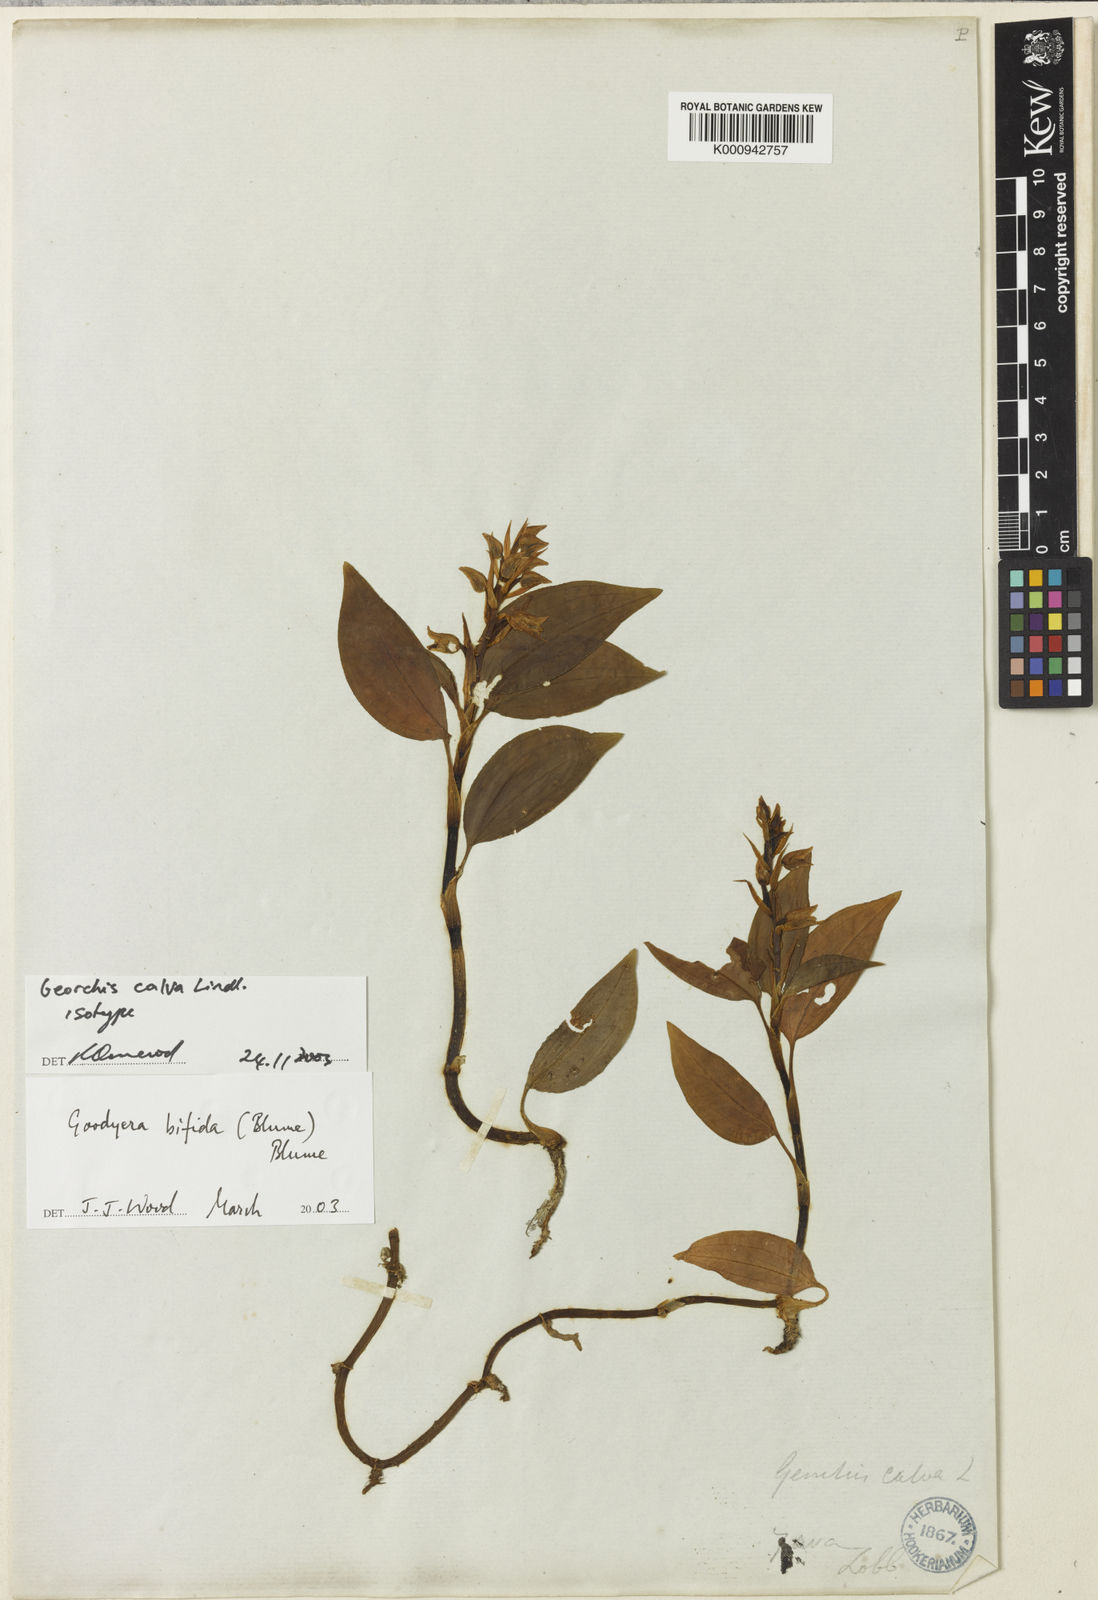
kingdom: Plantae
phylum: Tracheophyta
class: Liliopsida
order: Asparagales
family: Orchidaceae
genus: Goodyera
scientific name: Goodyera bifida
